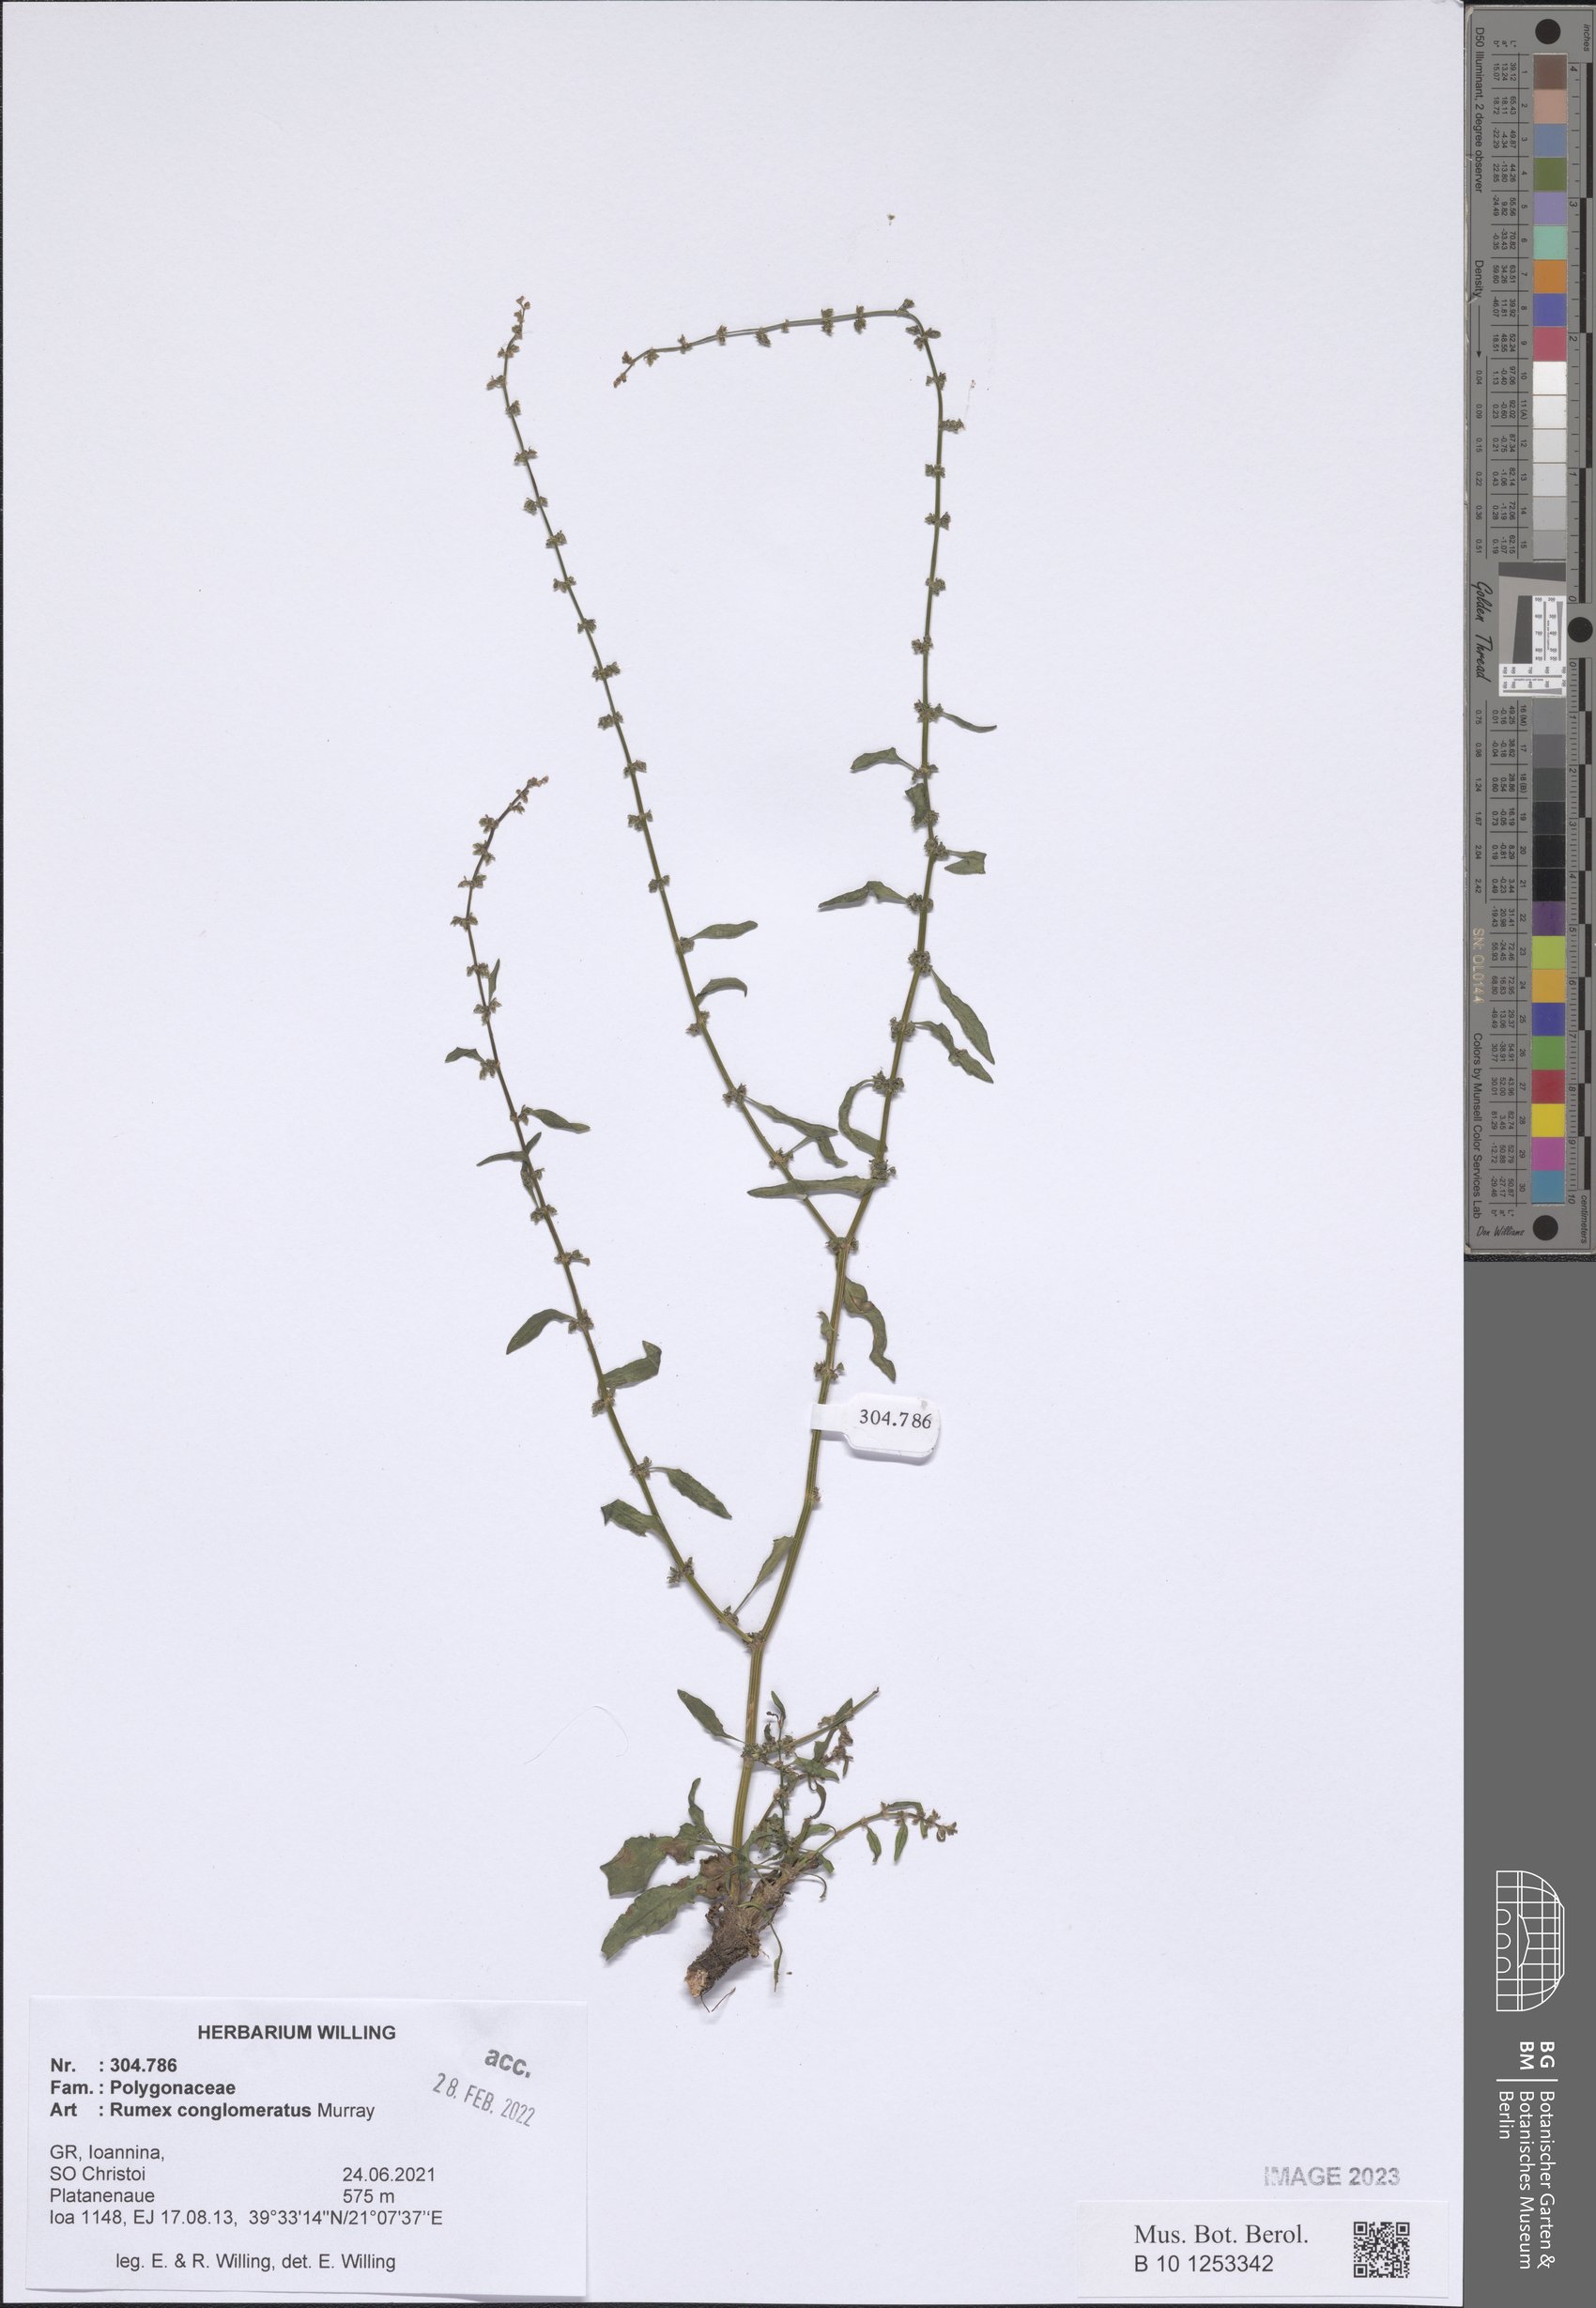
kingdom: Plantae
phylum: Tracheophyta
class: Magnoliopsida
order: Caryophyllales
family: Polygonaceae
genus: Rumex
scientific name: Rumex conglomeratus
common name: Clustered dock
